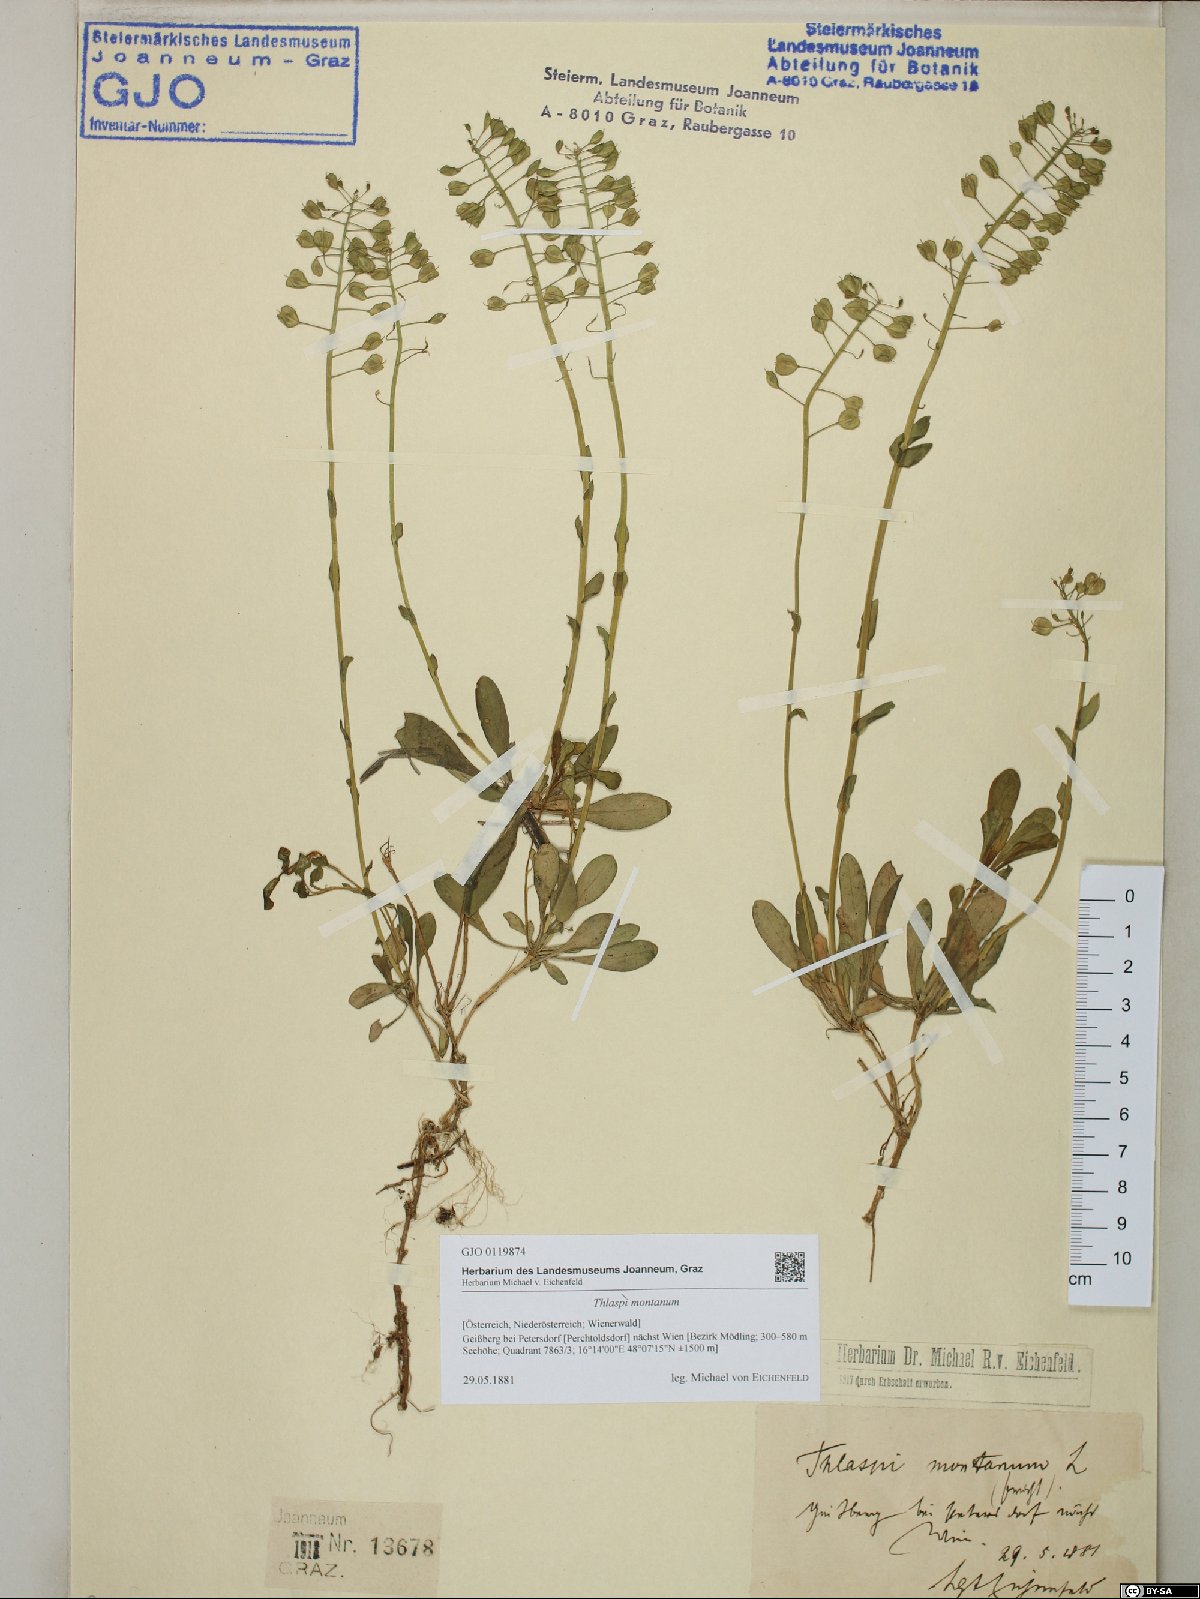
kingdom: Plantae
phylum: Tracheophyta
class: Magnoliopsida
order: Brassicales
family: Brassicaceae
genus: Noccaea
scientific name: Noccaea montana
